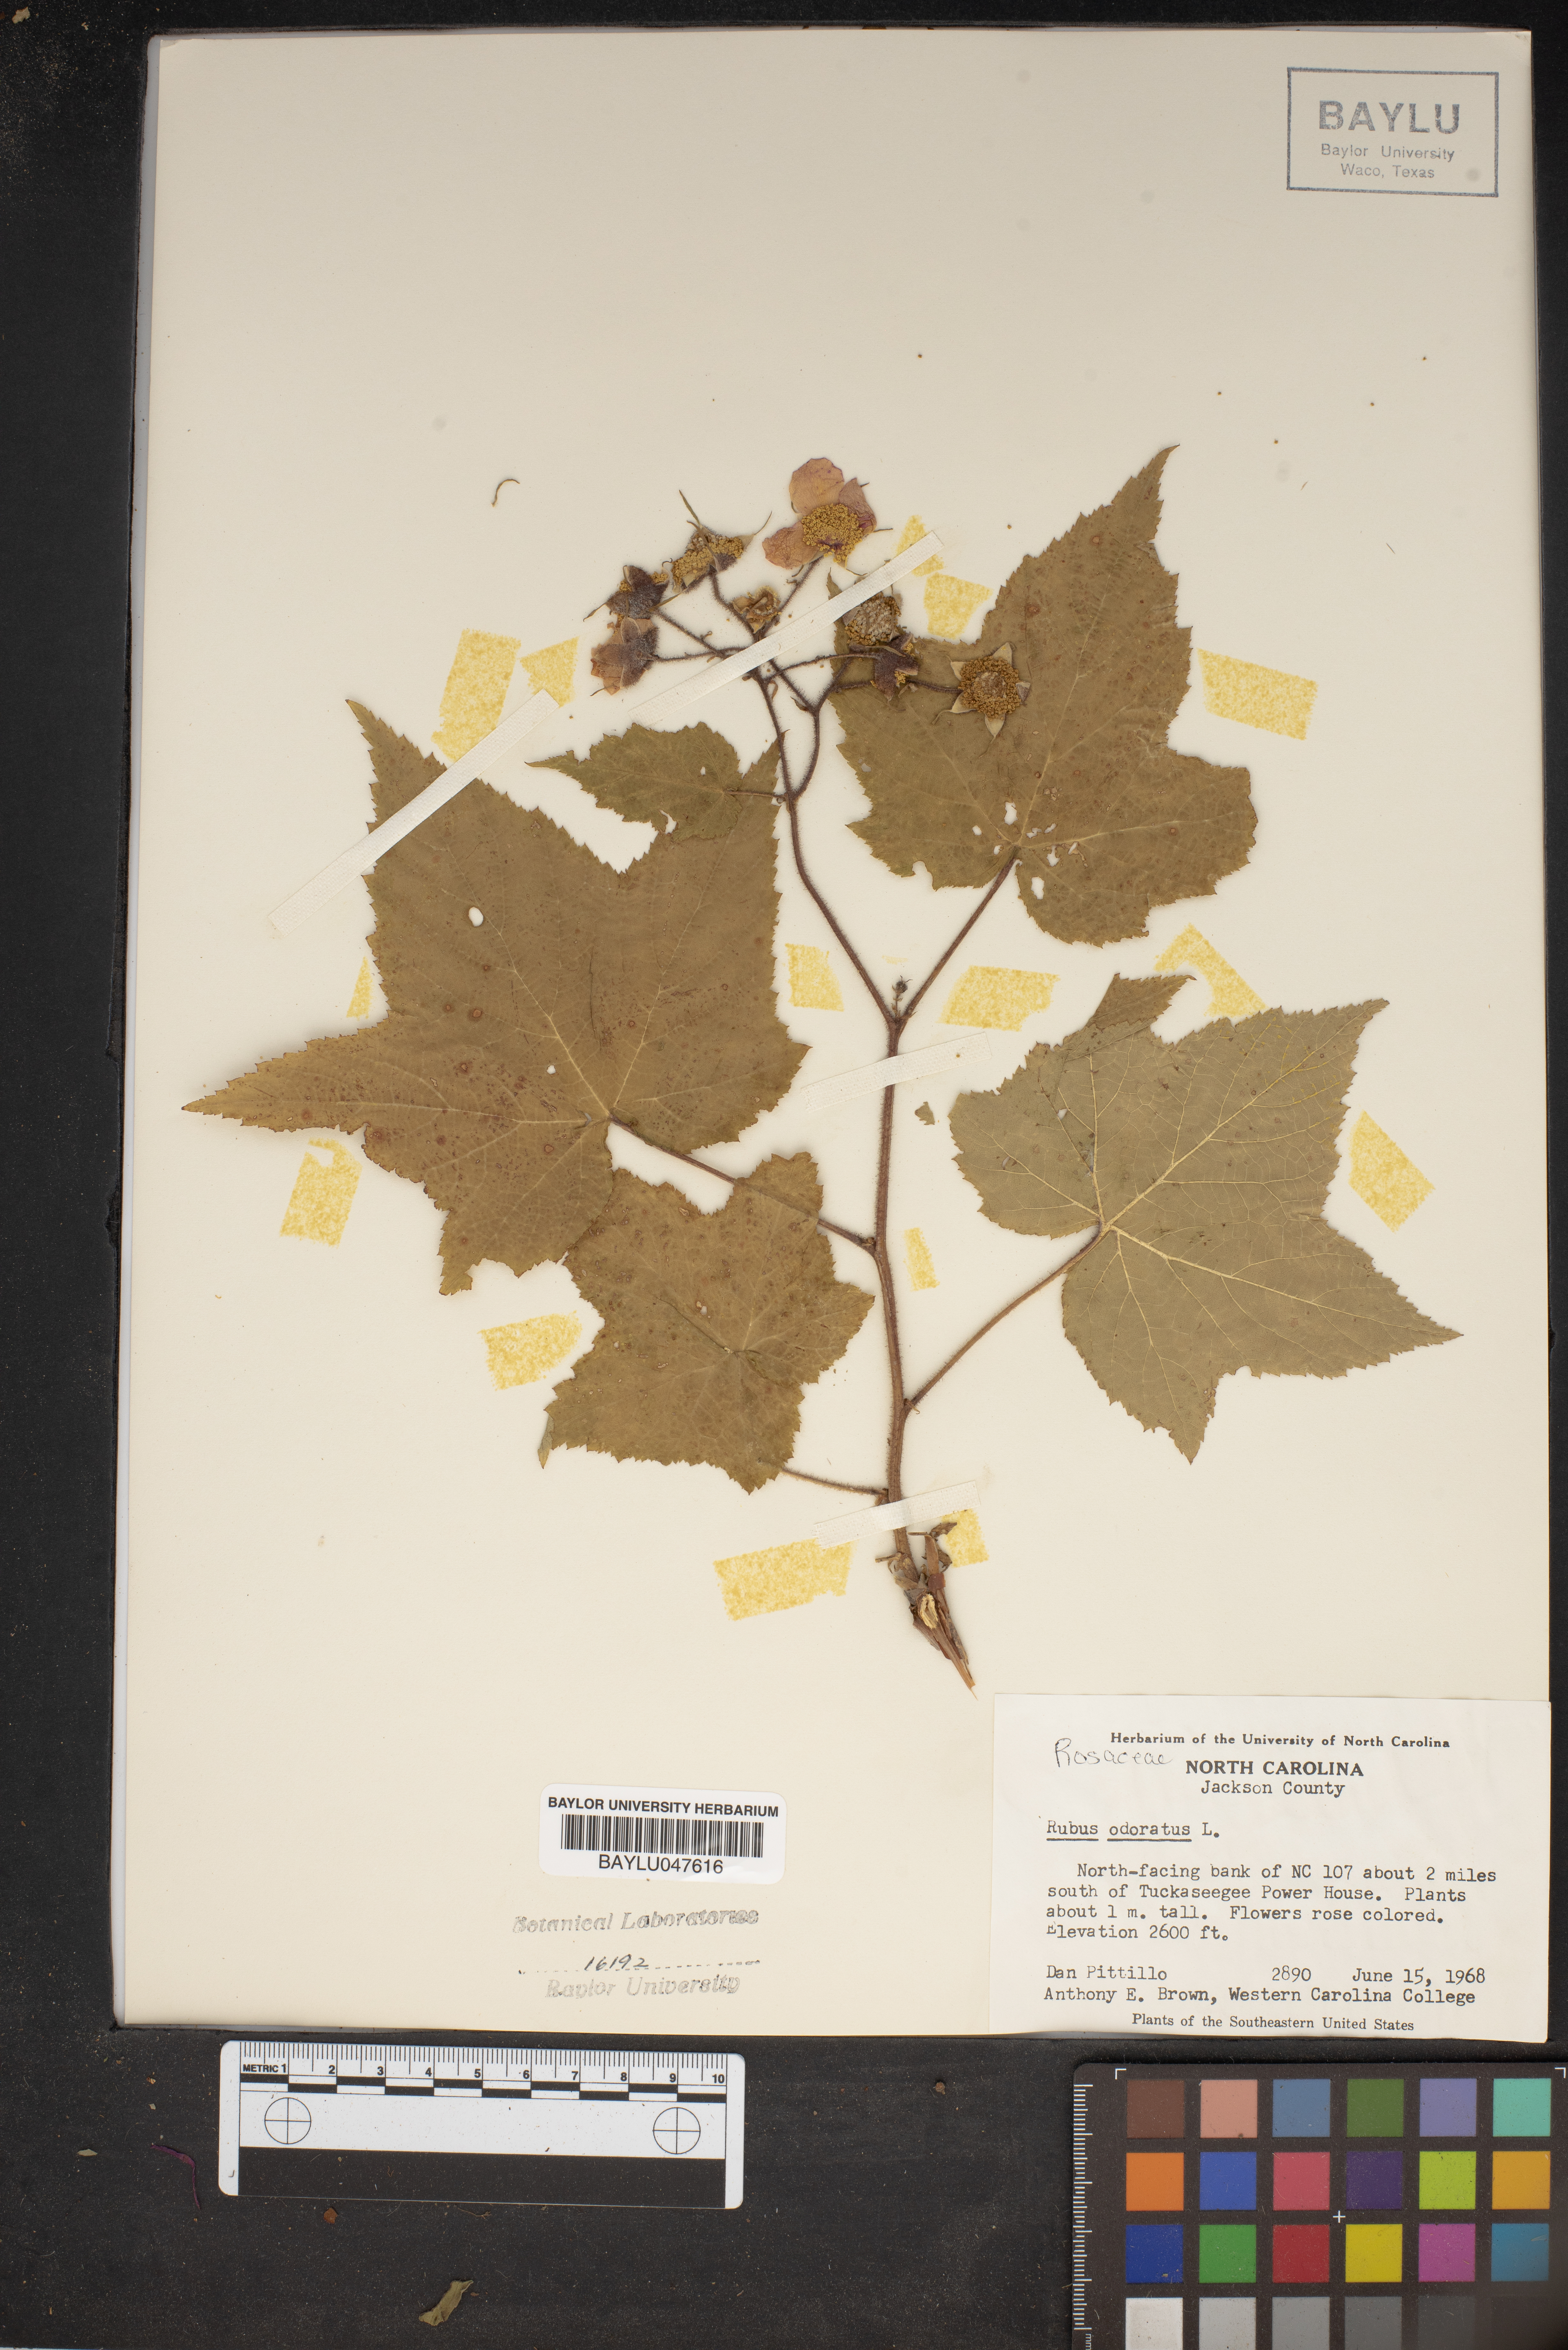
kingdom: Plantae
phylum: Tracheophyta
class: Magnoliopsida
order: Rosales
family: Rosaceae
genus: Rubus
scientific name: Rubus odoratus
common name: Purple-flowered raspberry
